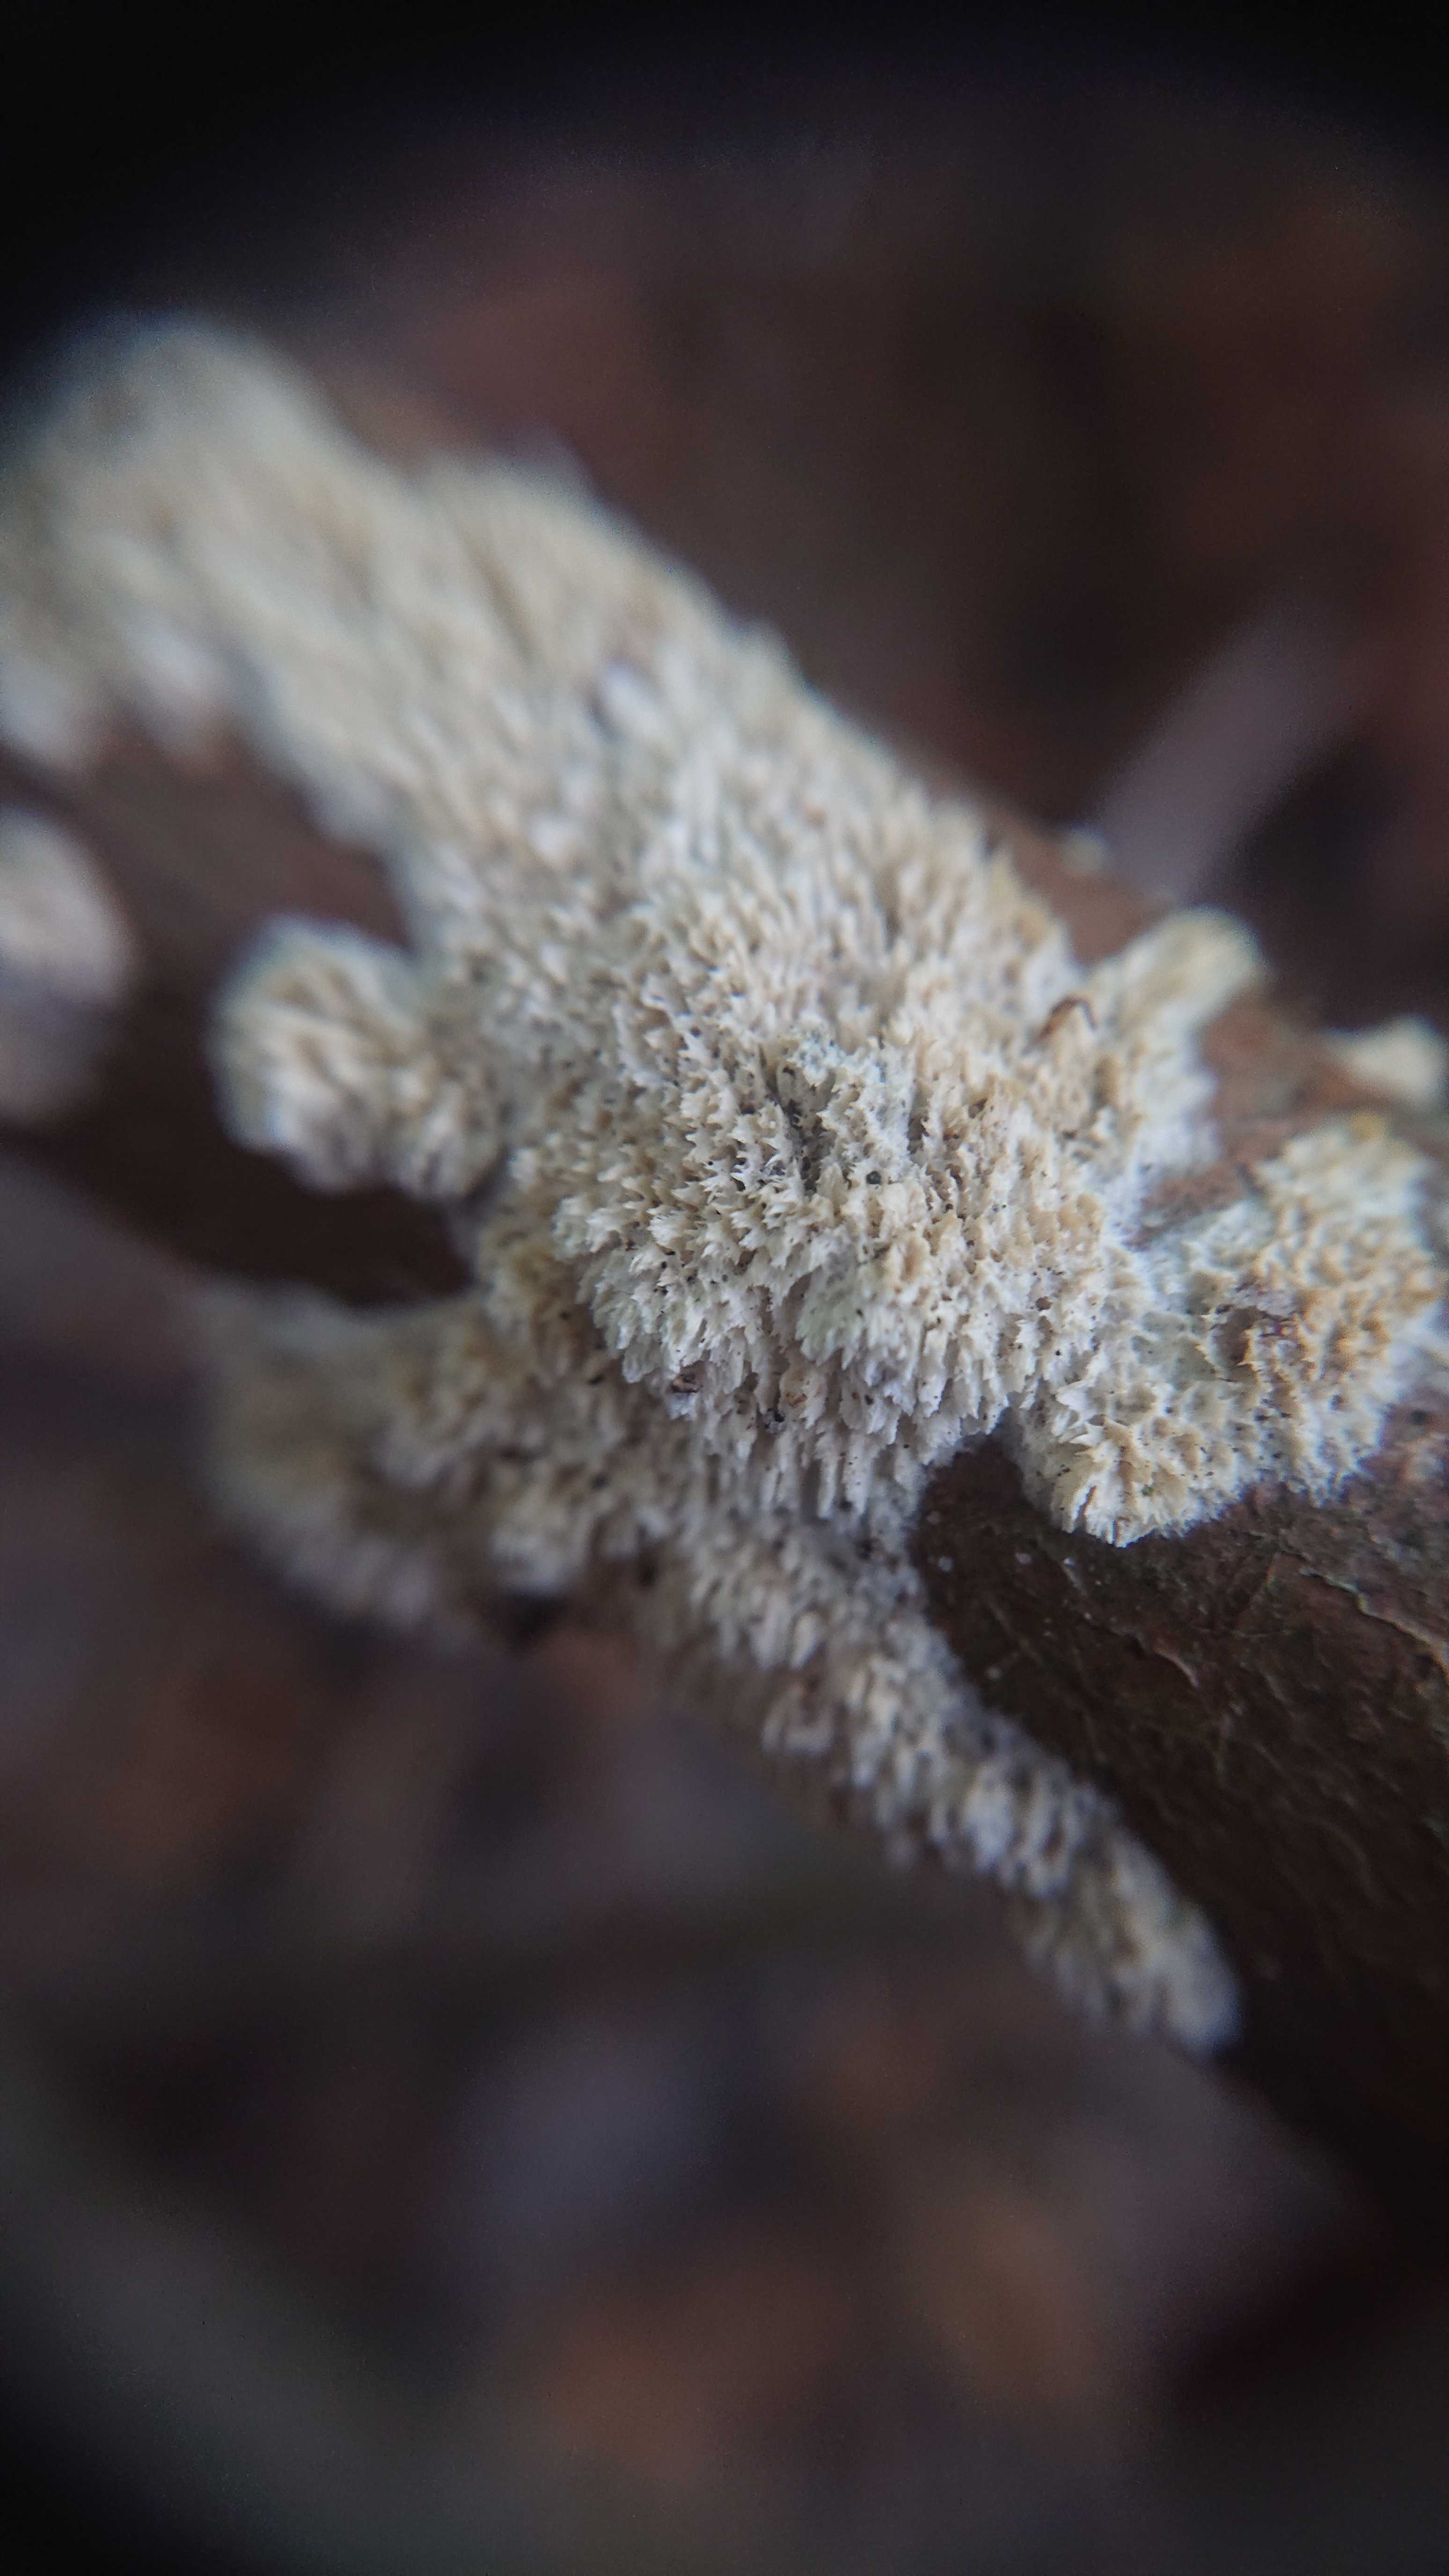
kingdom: Fungi
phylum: Basidiomycota
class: Agaricomycetes
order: Hymenochaetales
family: Schizoporaceae
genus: Schizopora
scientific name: Schizopora paradoxa
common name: hvid tandsvamp
